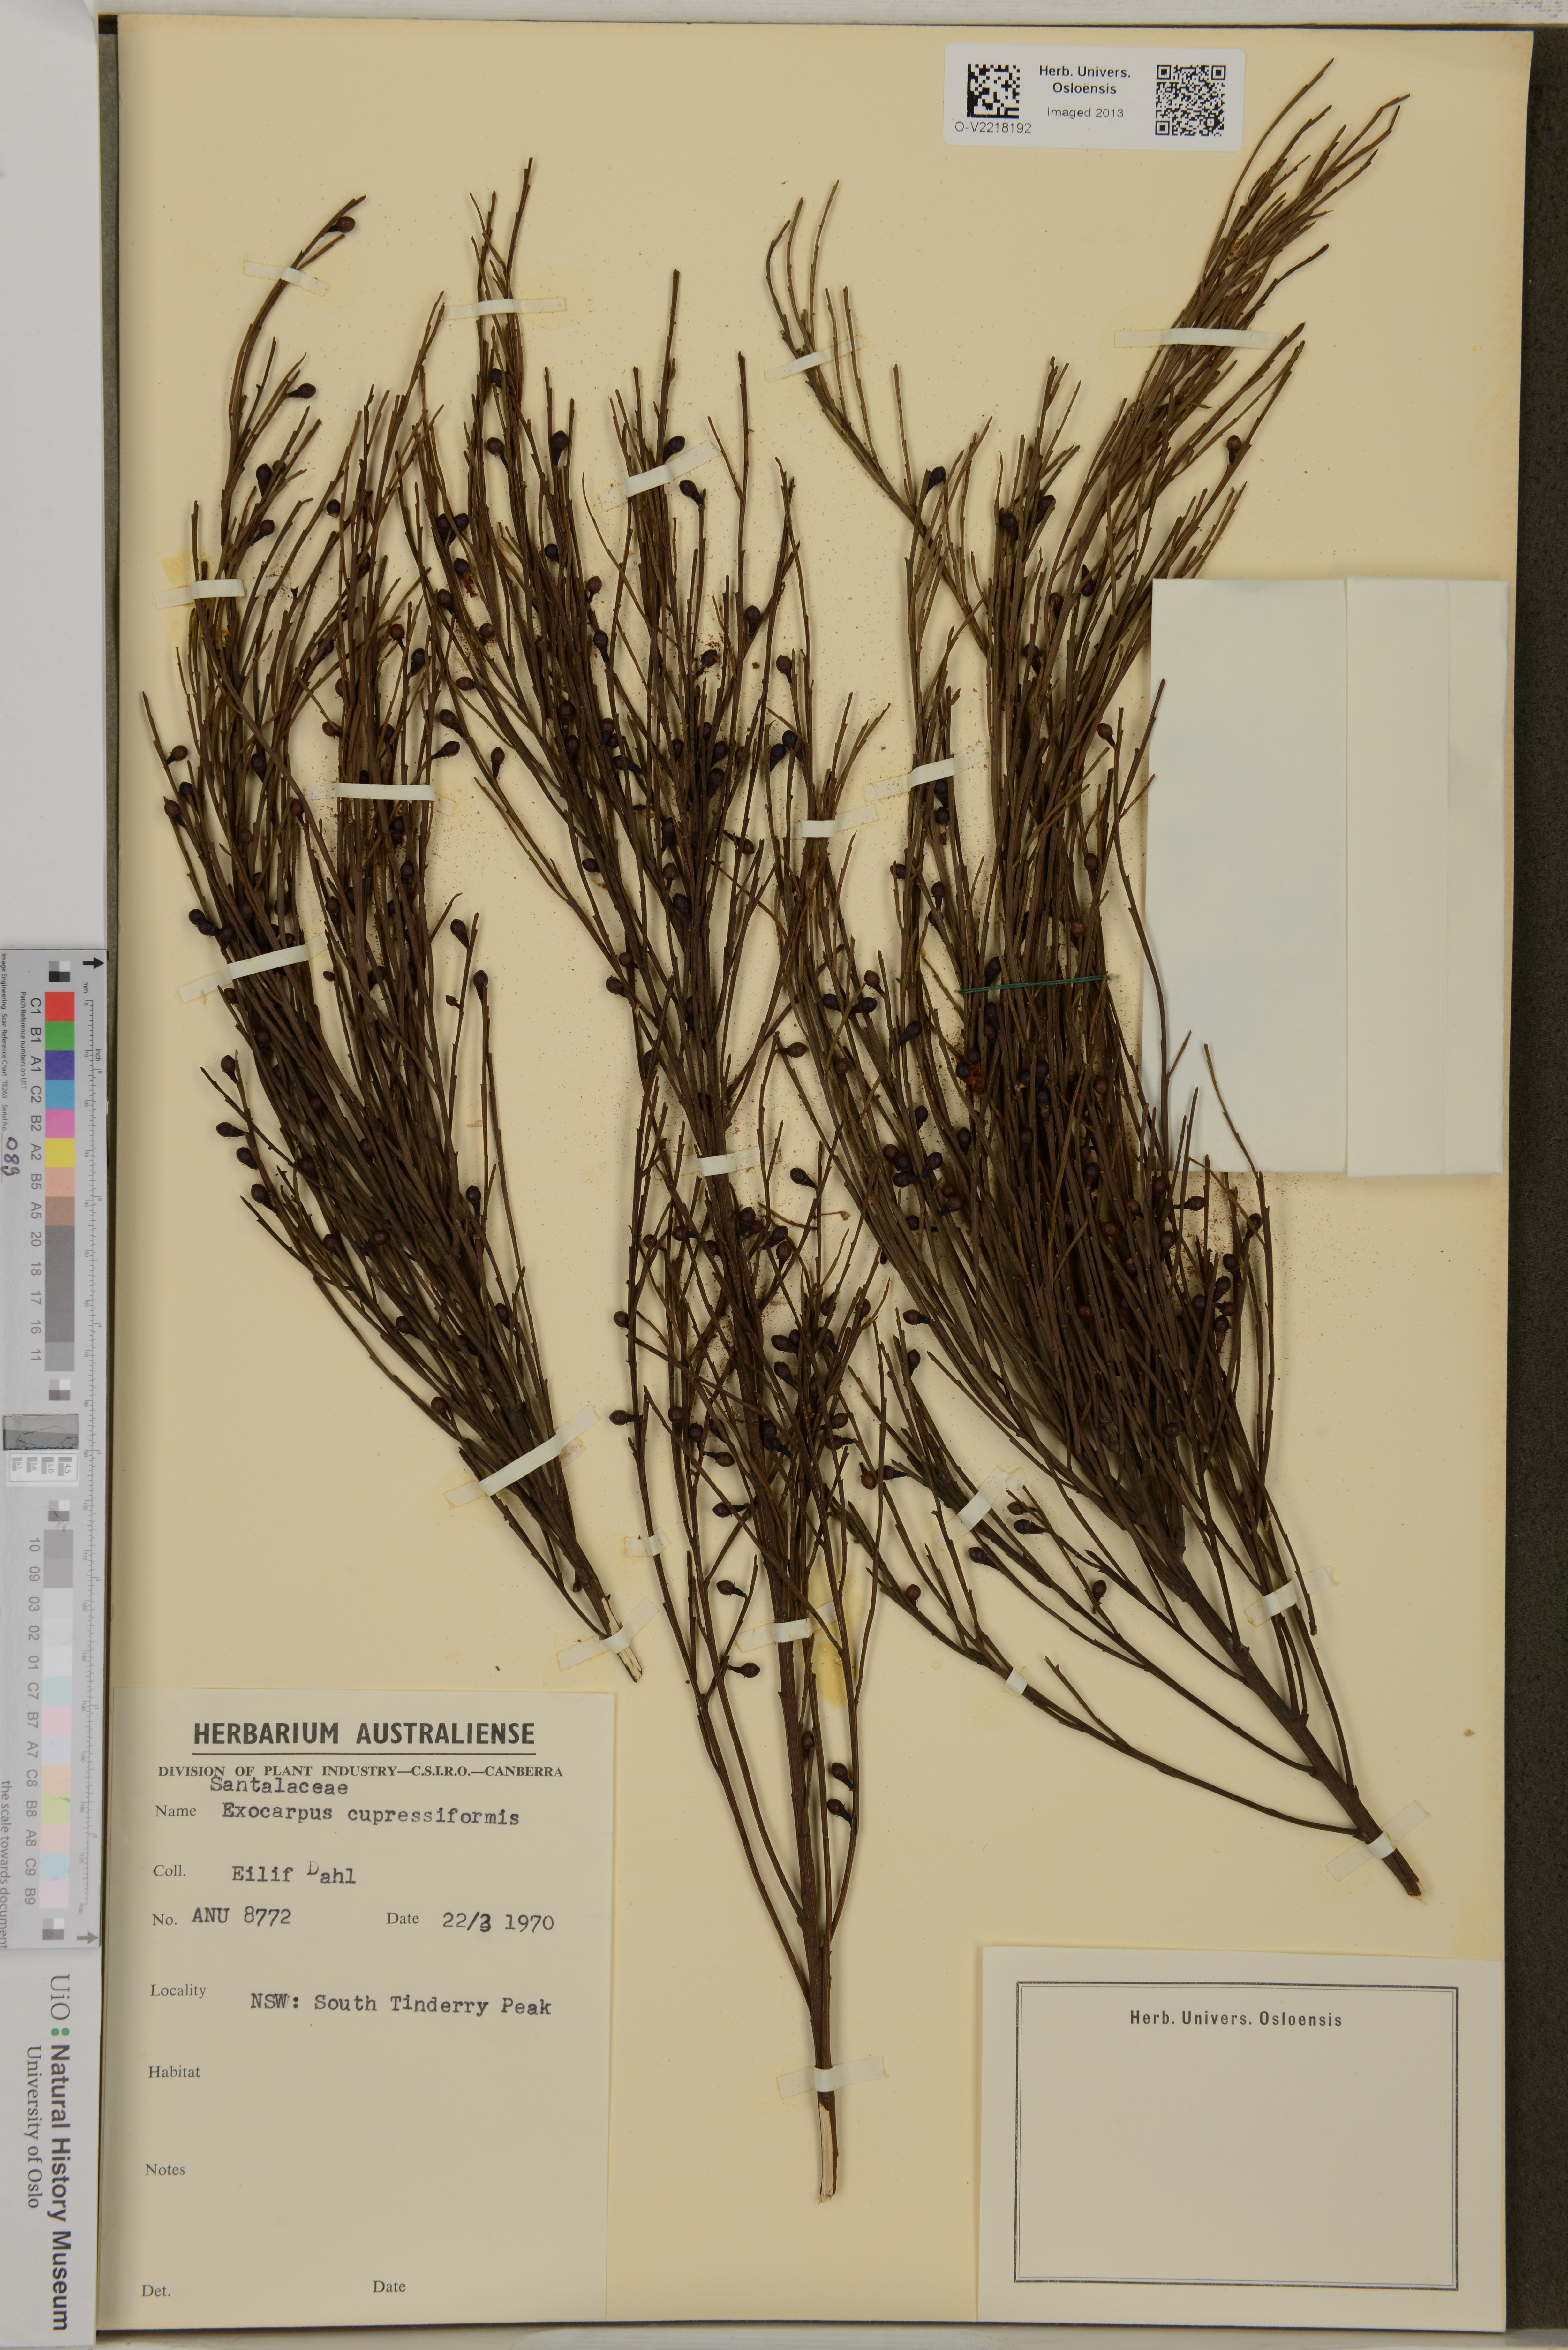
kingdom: Plantae
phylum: Tracheophyta
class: Magnoliopsida
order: Santalales
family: Santalaceae
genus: Exocarpos
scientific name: Exocarpos cupressiformis
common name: Cherry ballart
